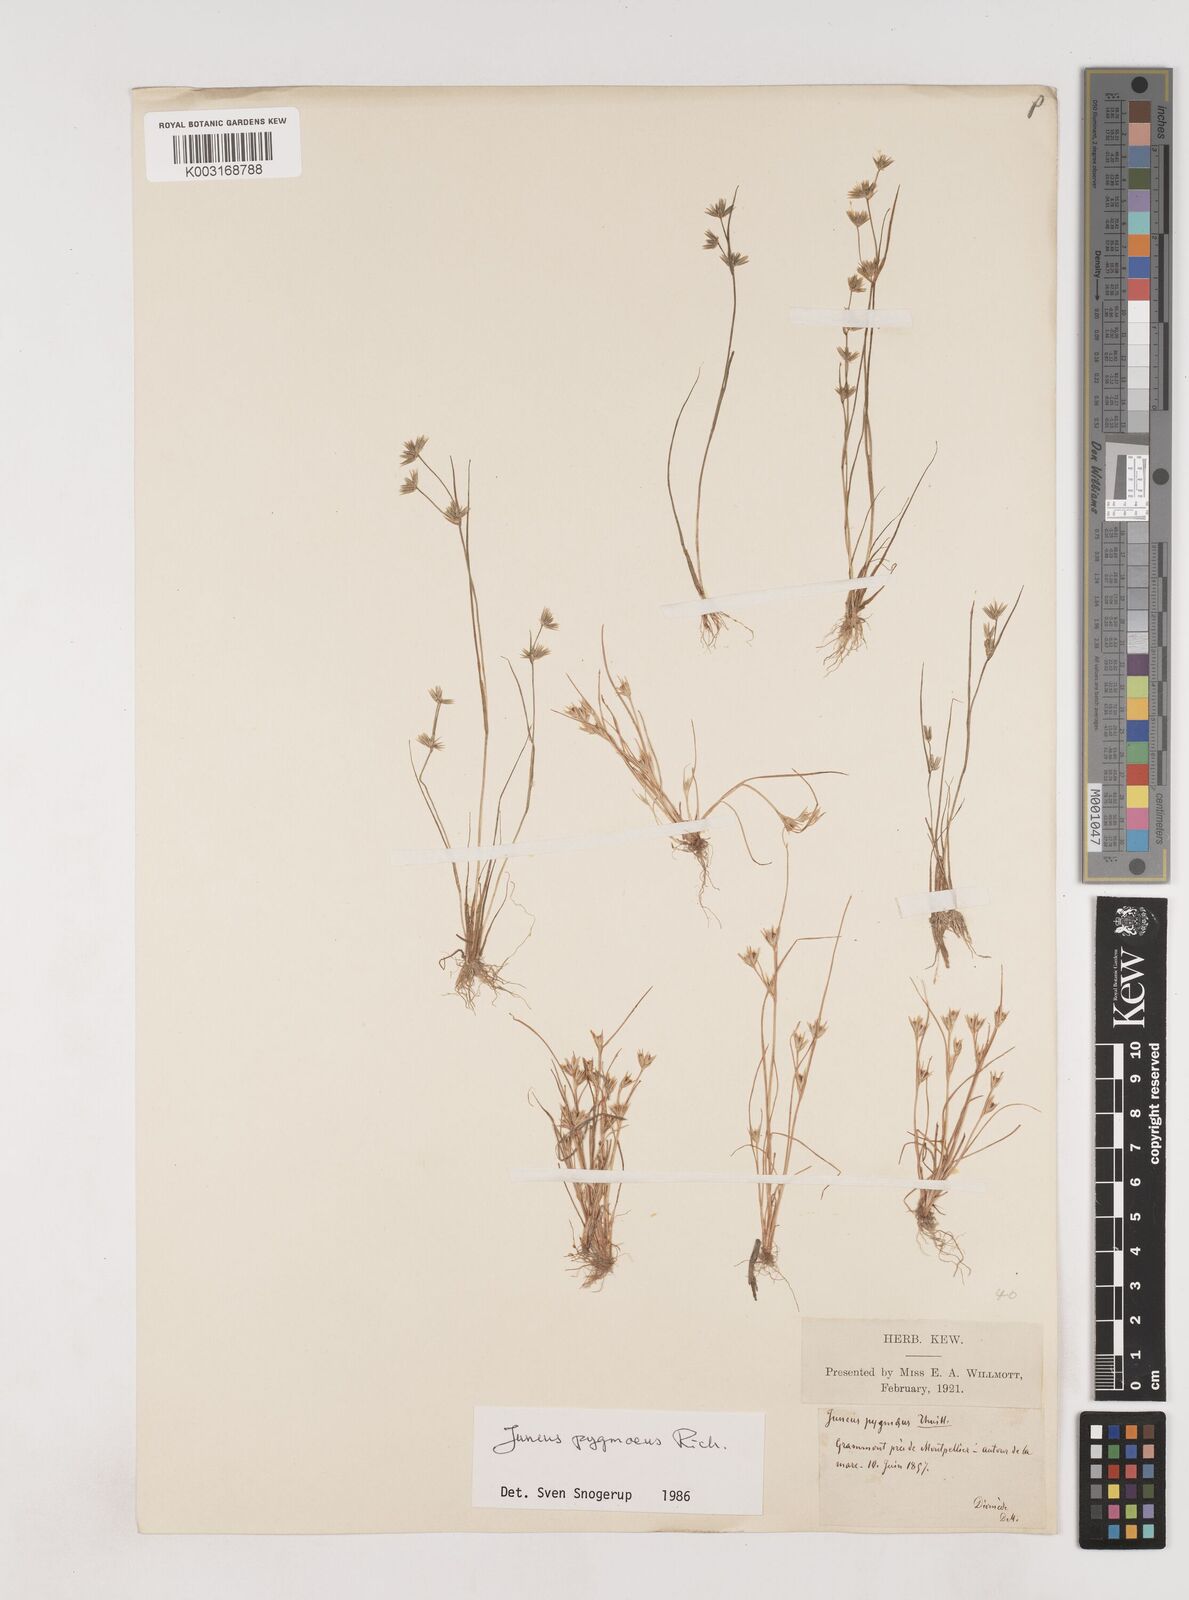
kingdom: Plantae
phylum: Tracheophyta
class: Liliopsida
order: Poales
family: Juncaceae
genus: Juncus
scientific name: Juncus pygmaeus
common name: Pigmy rush
